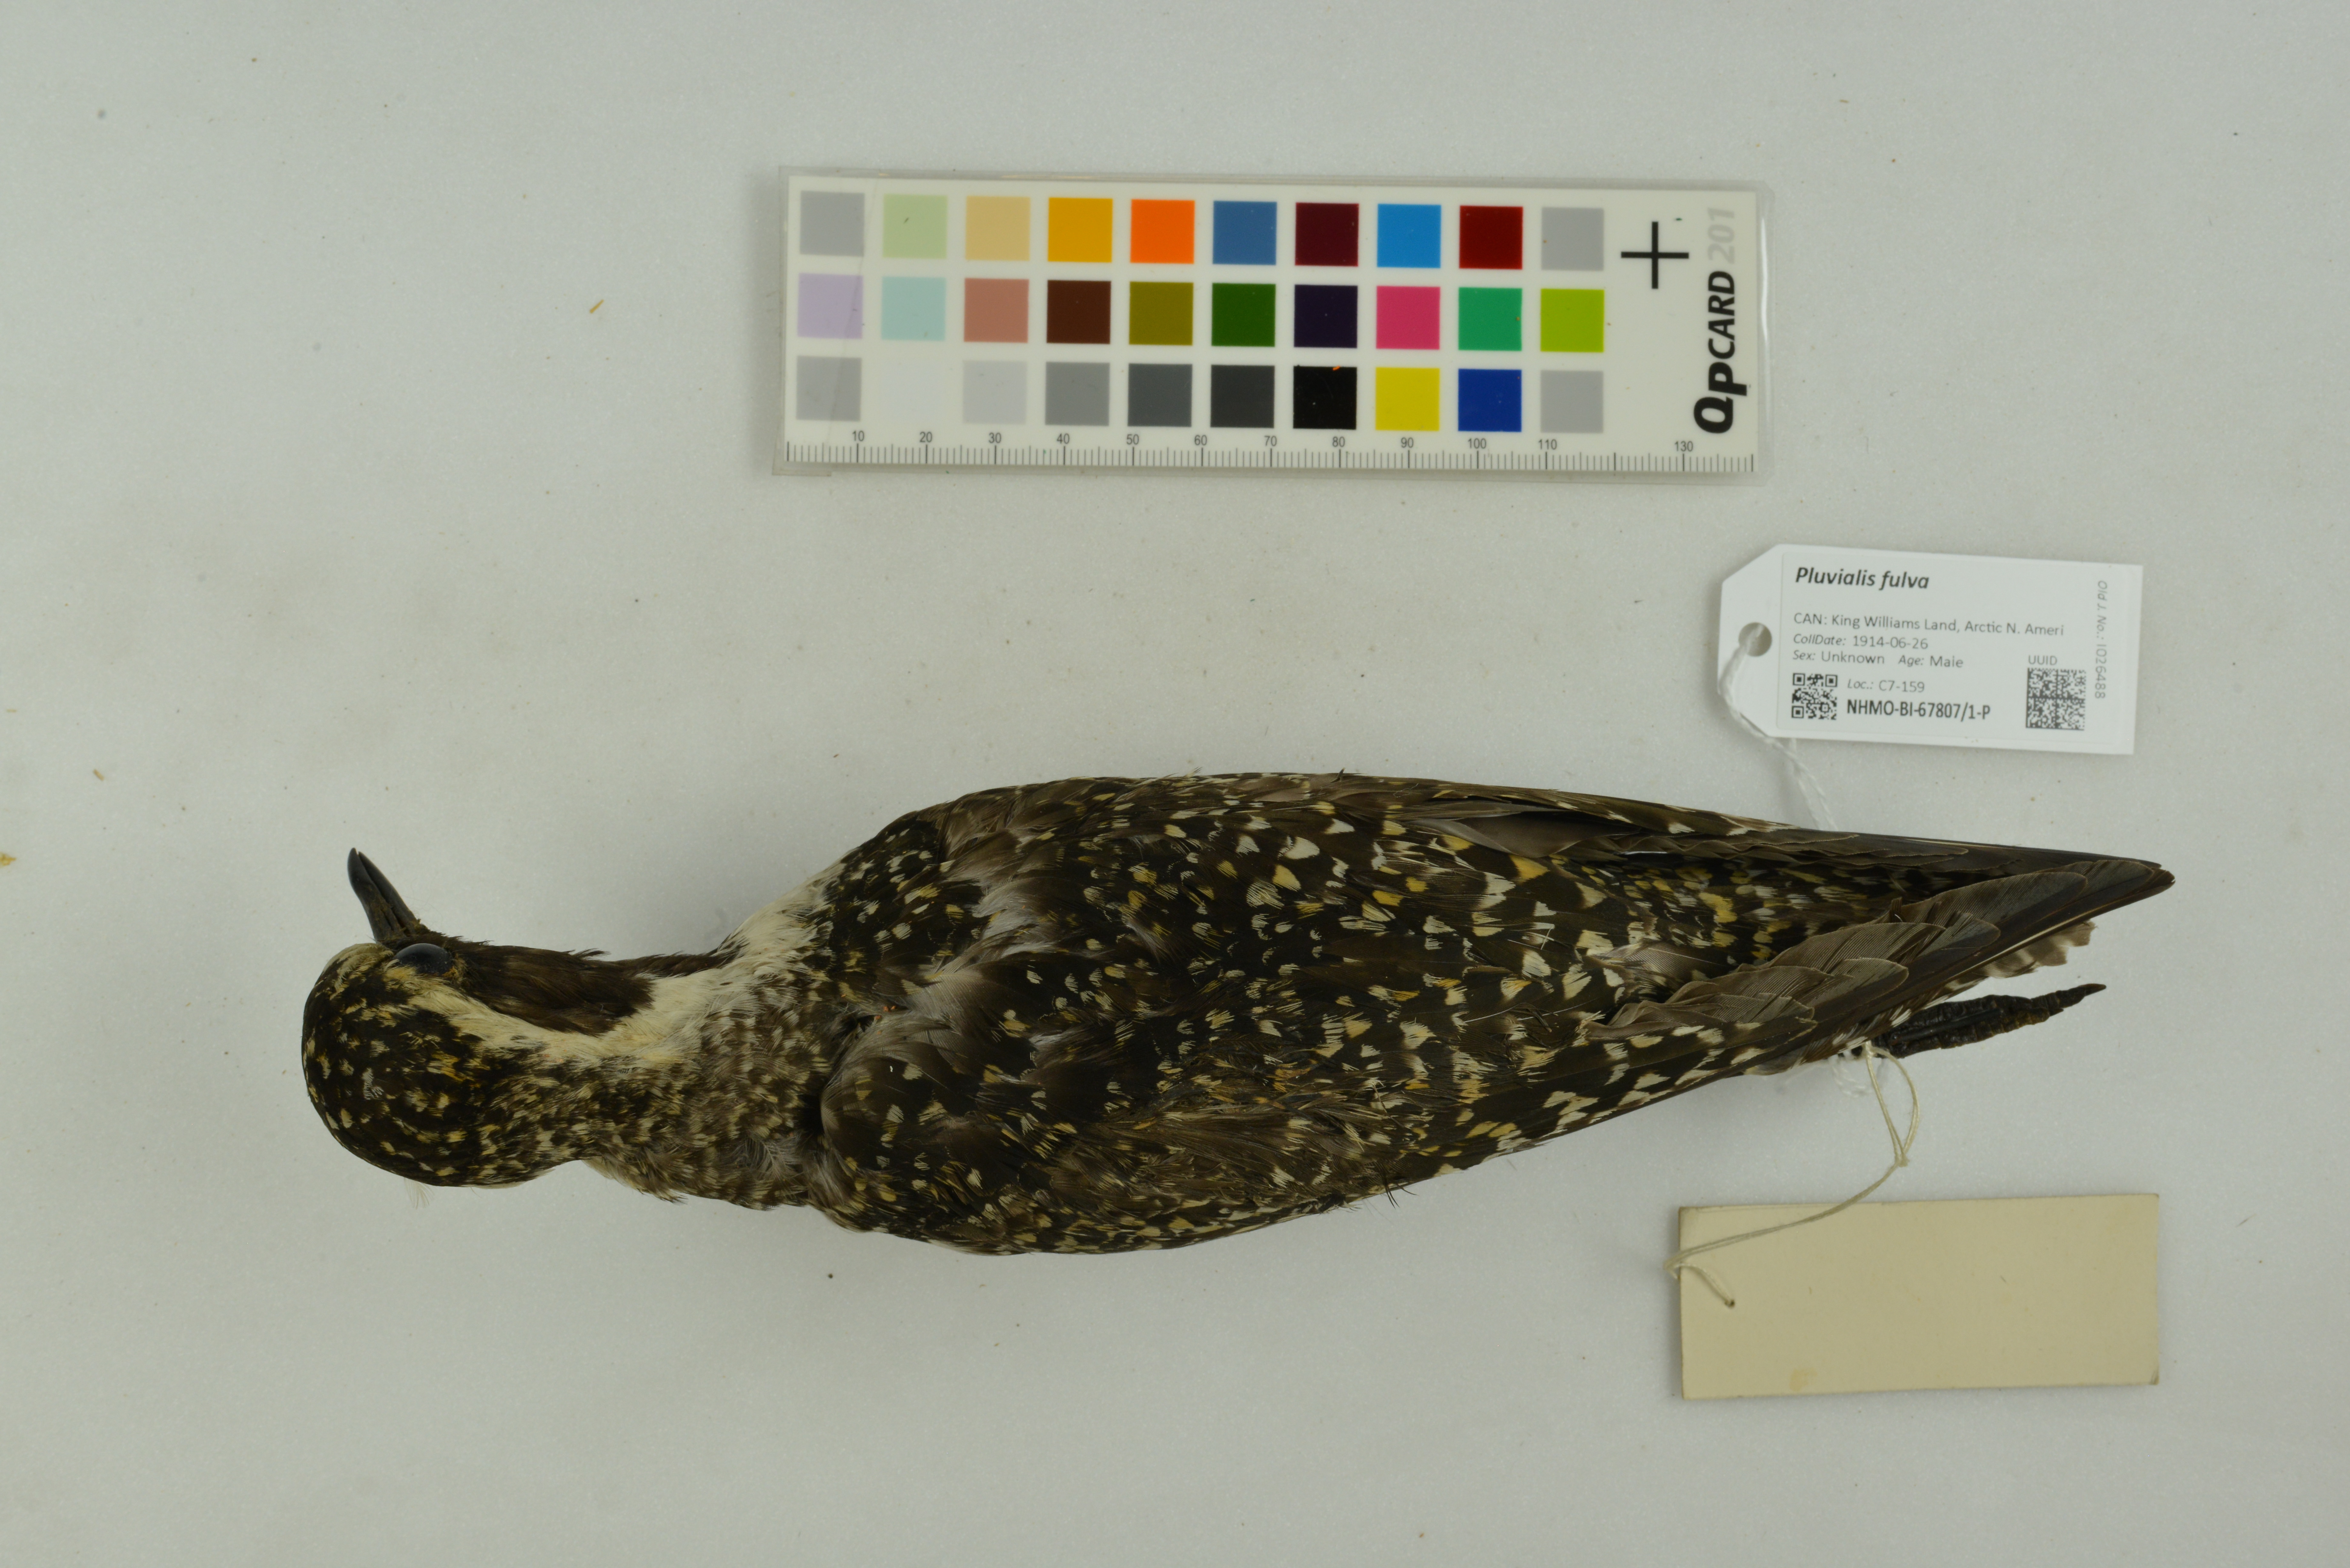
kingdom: Animalia
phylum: Chordata
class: Aves
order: Charadriiformes
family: Charadriidae
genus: Pluvialis
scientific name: Pluvialis dominica
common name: American golden plover
